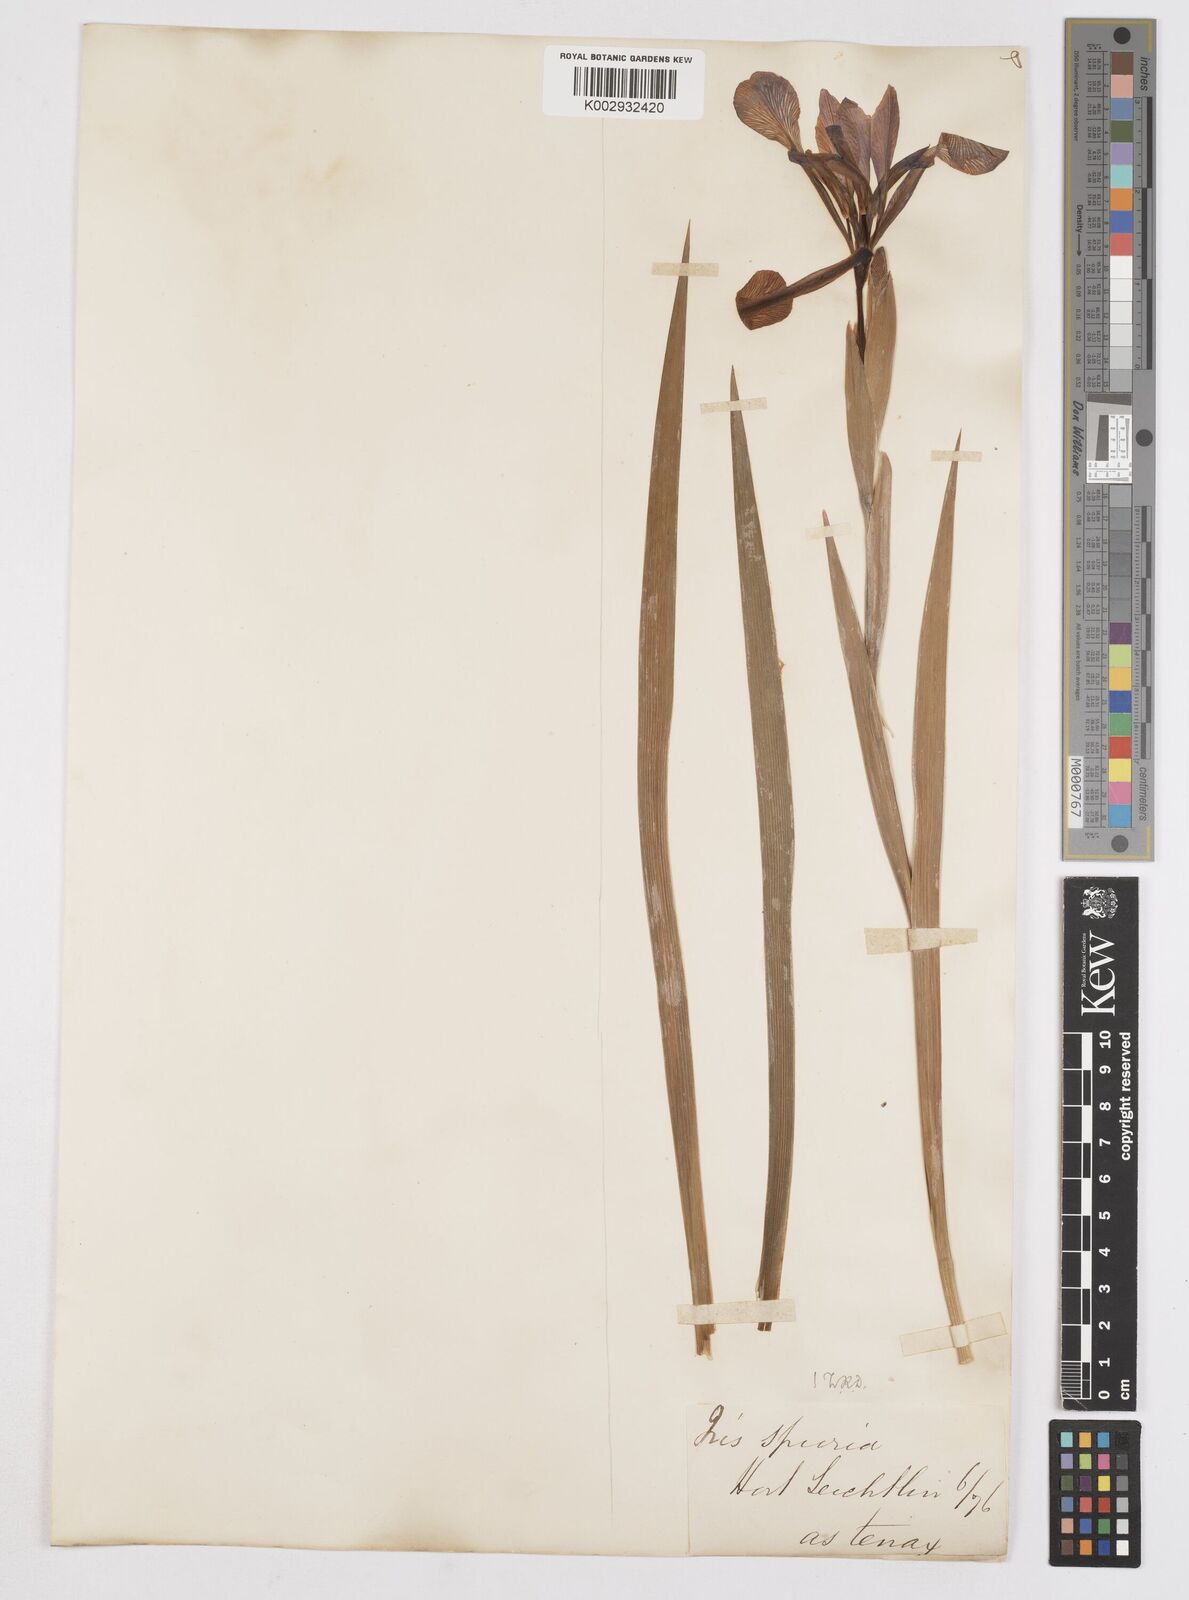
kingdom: Plantae
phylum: Tracheophyta
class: Liliopsida
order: Asparagales
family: Iridaceae
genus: Iris
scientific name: Iris spuria
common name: Blue iris
